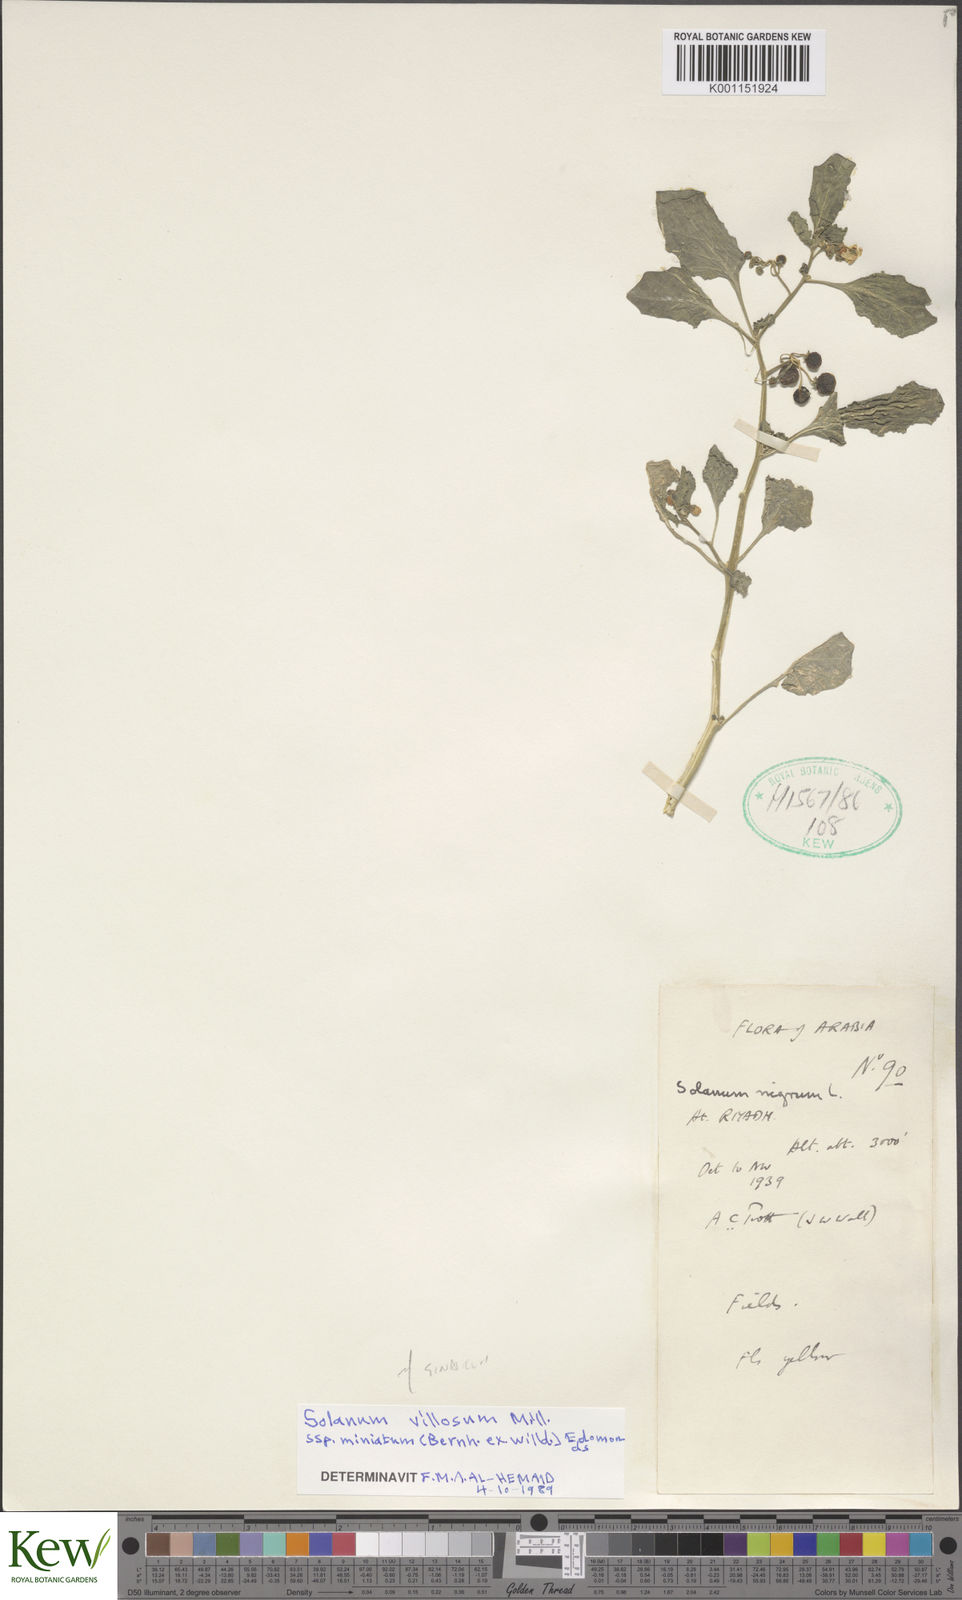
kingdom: Plantae
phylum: Tracheophyta
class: Magnoliopsida
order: Solanales
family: Solanaceae
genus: Solanum
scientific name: Solanum villosum
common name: Red nightshade
